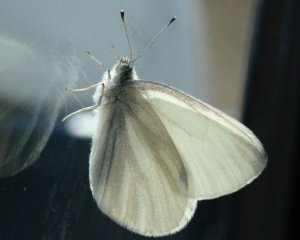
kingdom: Animalia
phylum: Arthropoda
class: Insecta
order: Lepidoptera
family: Pieridae
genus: Pieris
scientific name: Pieris virginiensis
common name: West Virginia White
